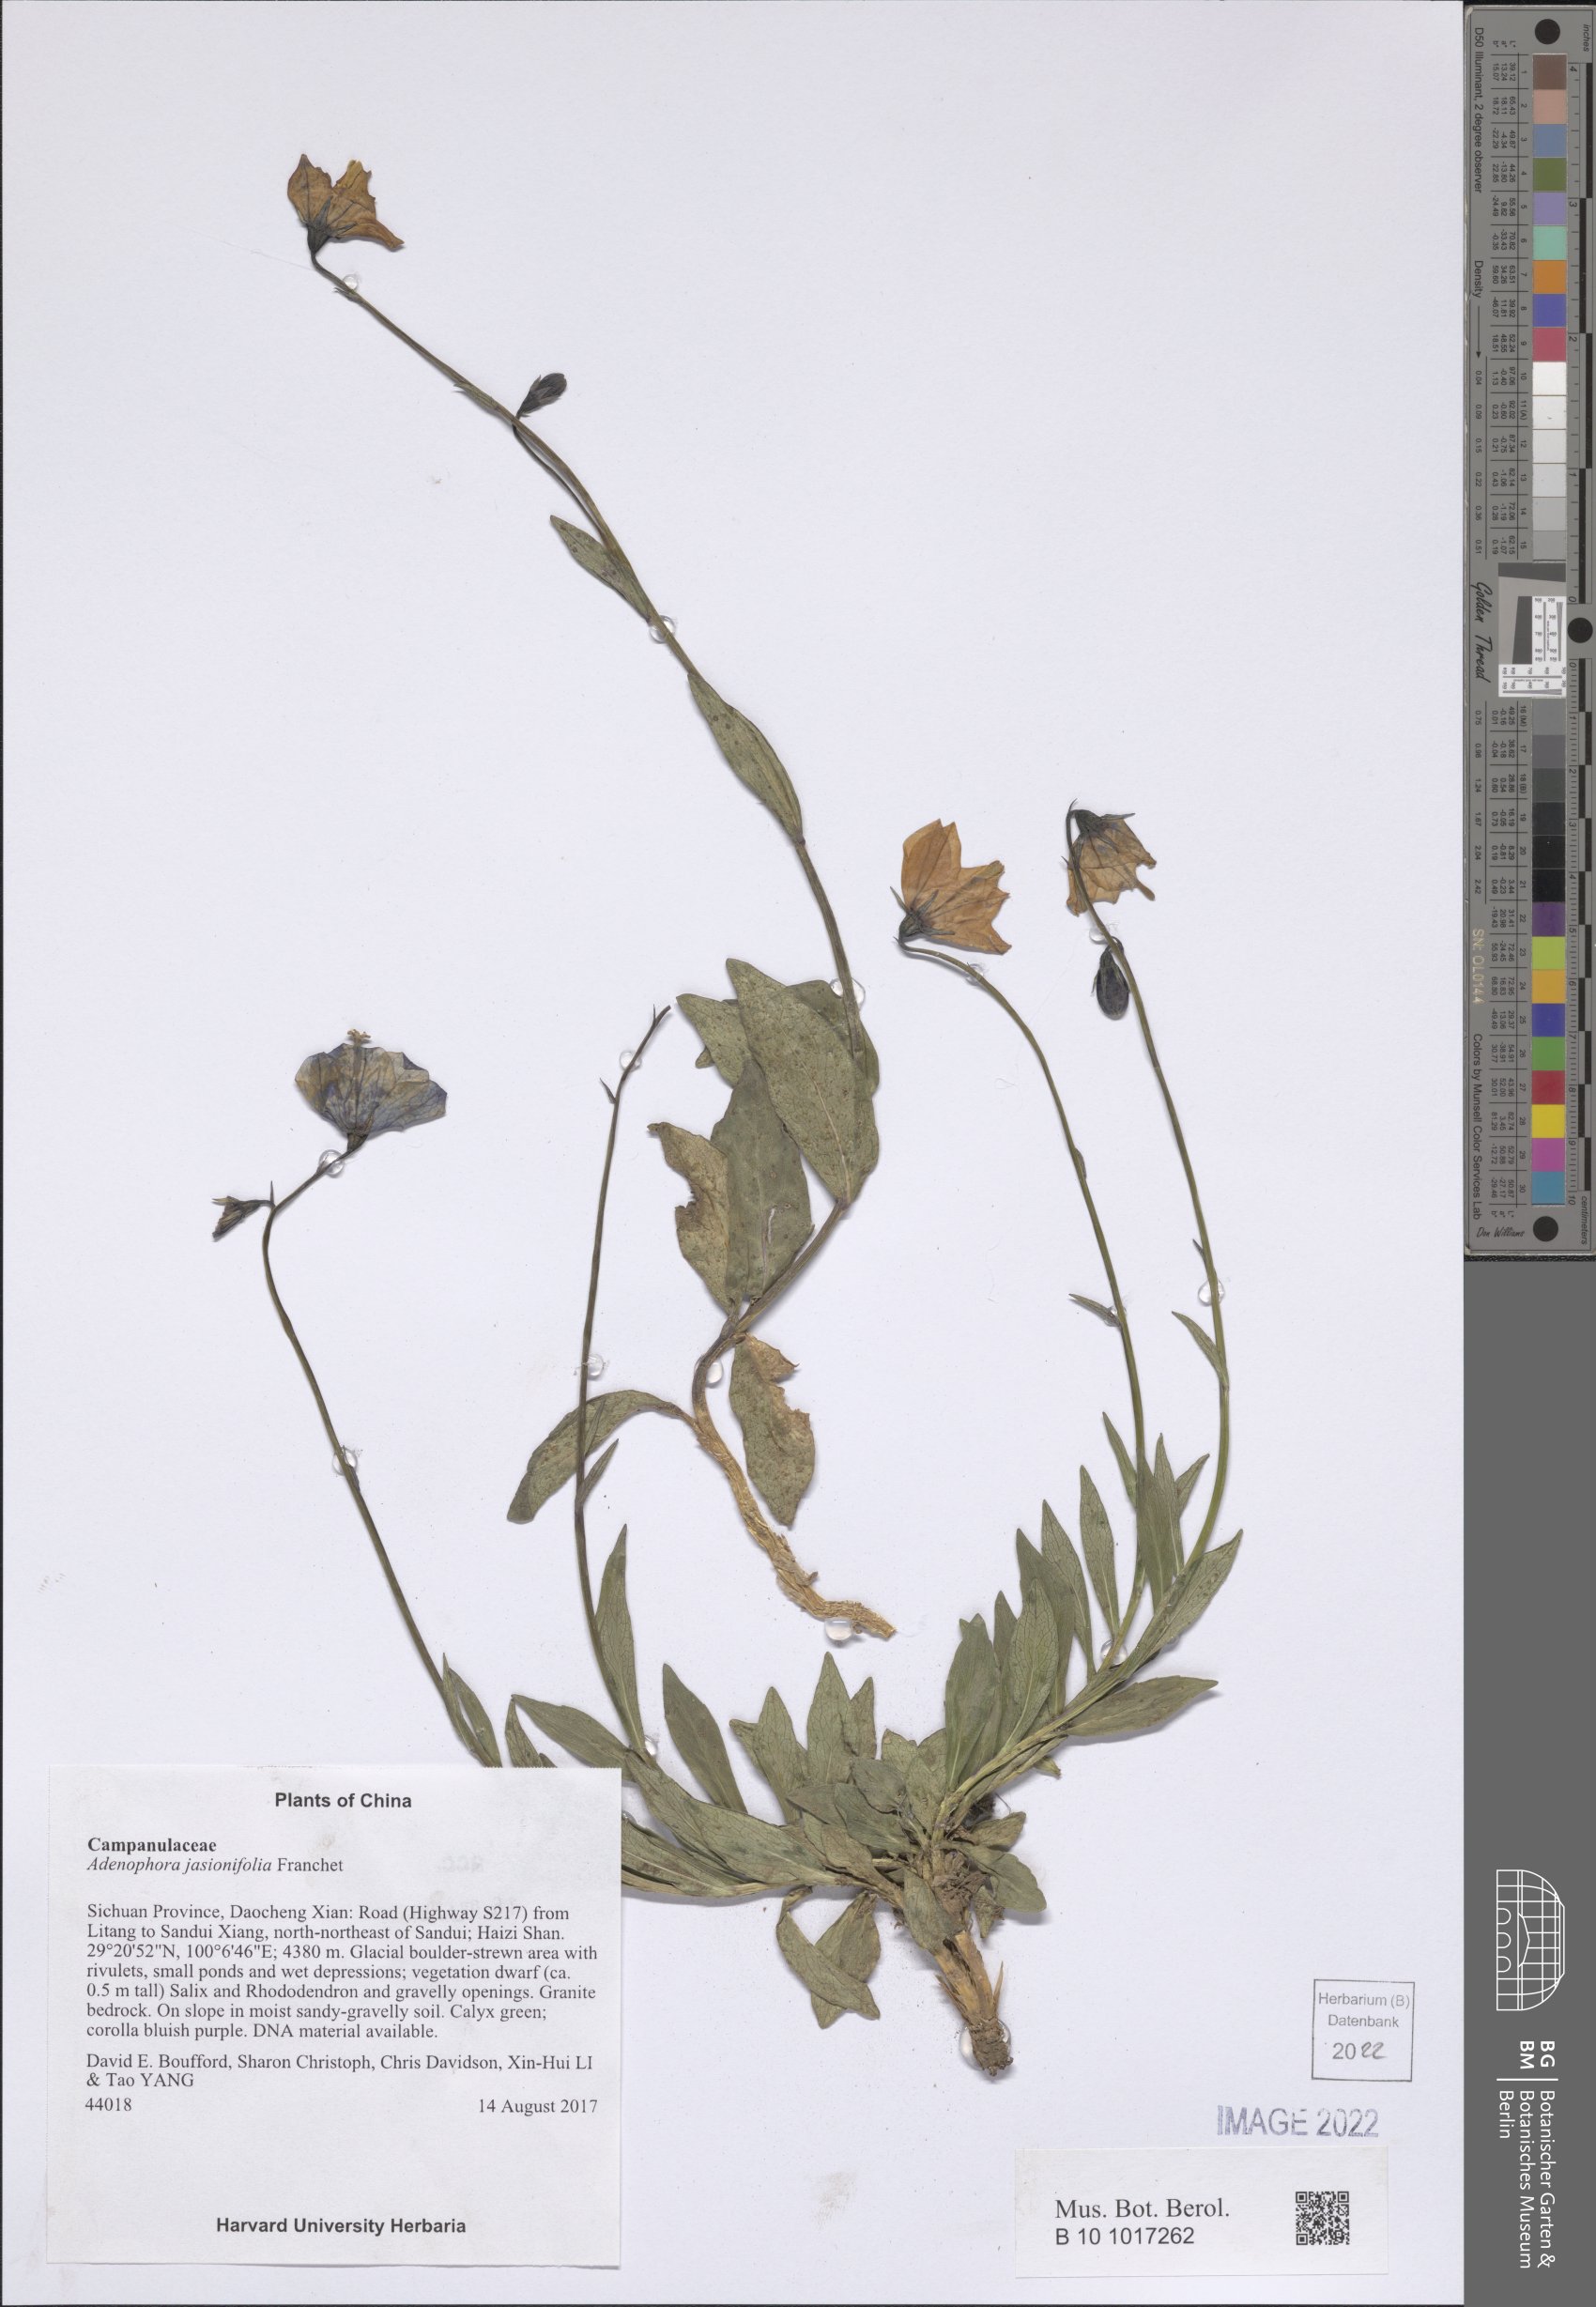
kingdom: Plantae
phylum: Tracheophyta
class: Magnoliopsida
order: Asterales
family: Campanulaceae
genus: Adenophora
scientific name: Adenophora jasionifolia
